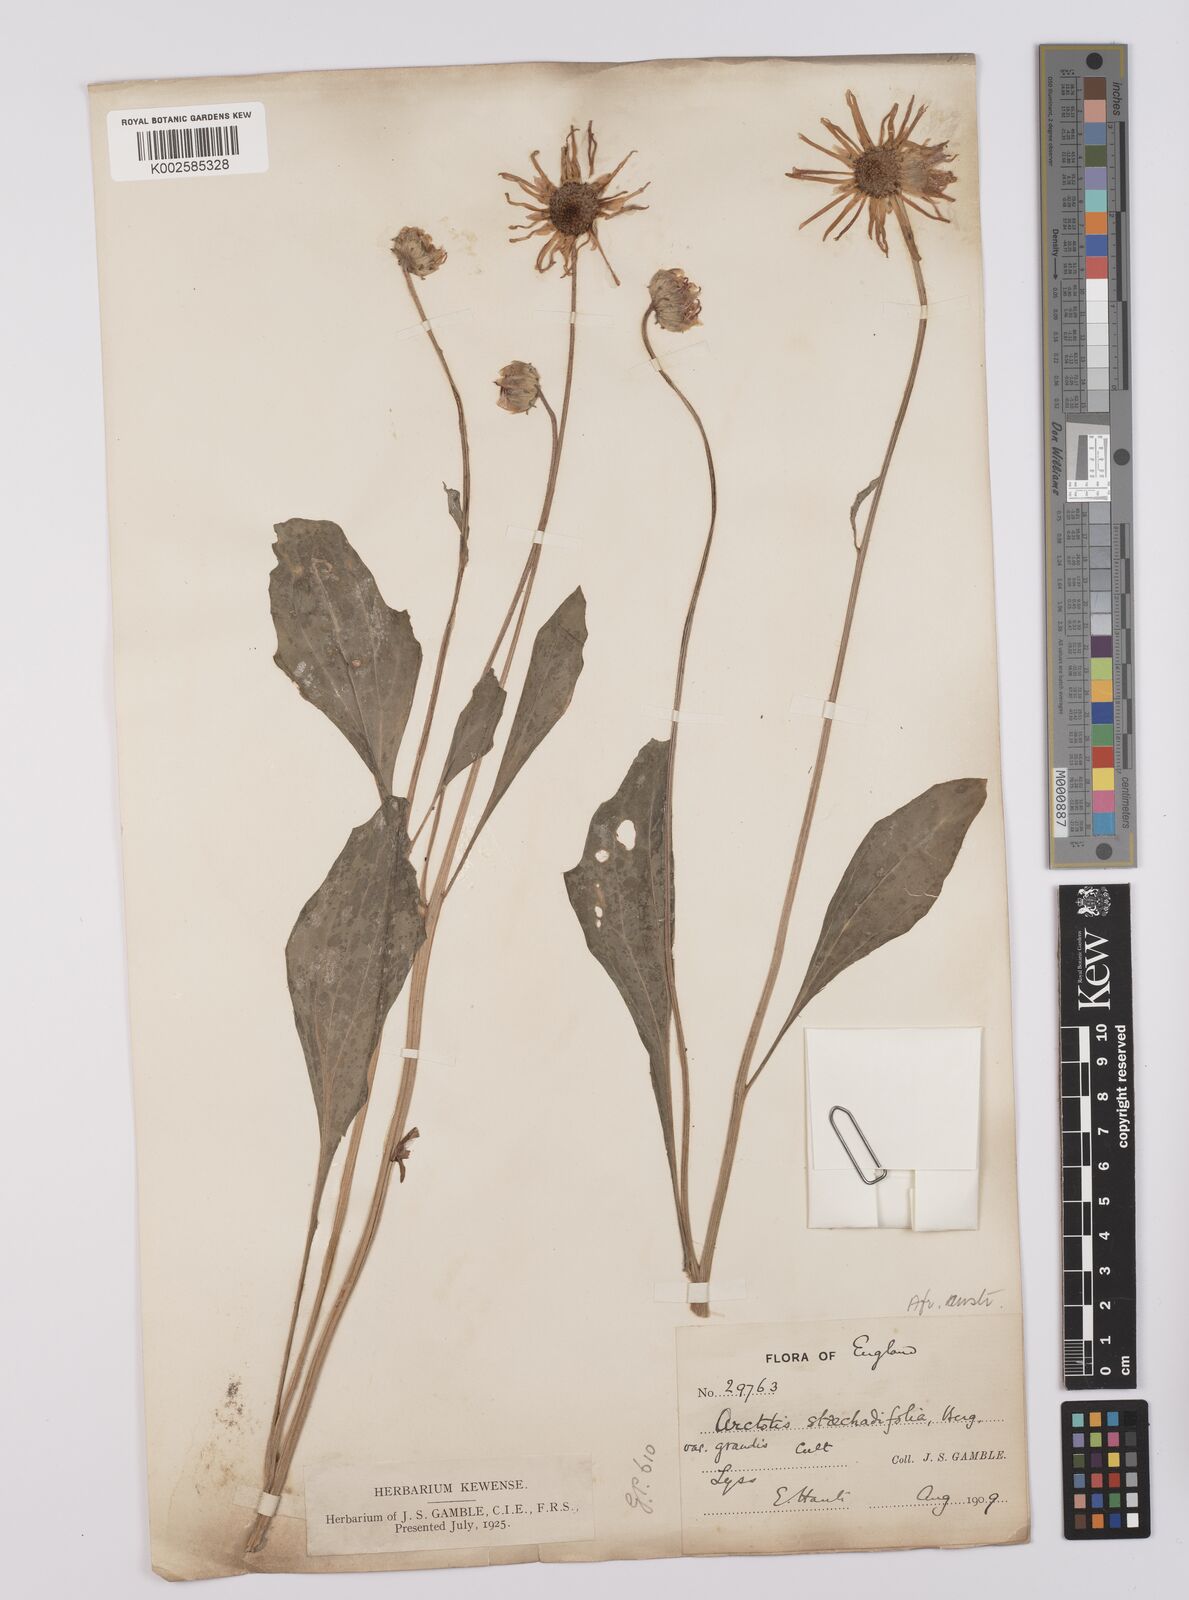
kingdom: Plantae
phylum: Tracheophyta
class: Magnoliopsida
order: Asterales
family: Asteraceae
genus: Arctotis
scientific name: Arctotis
